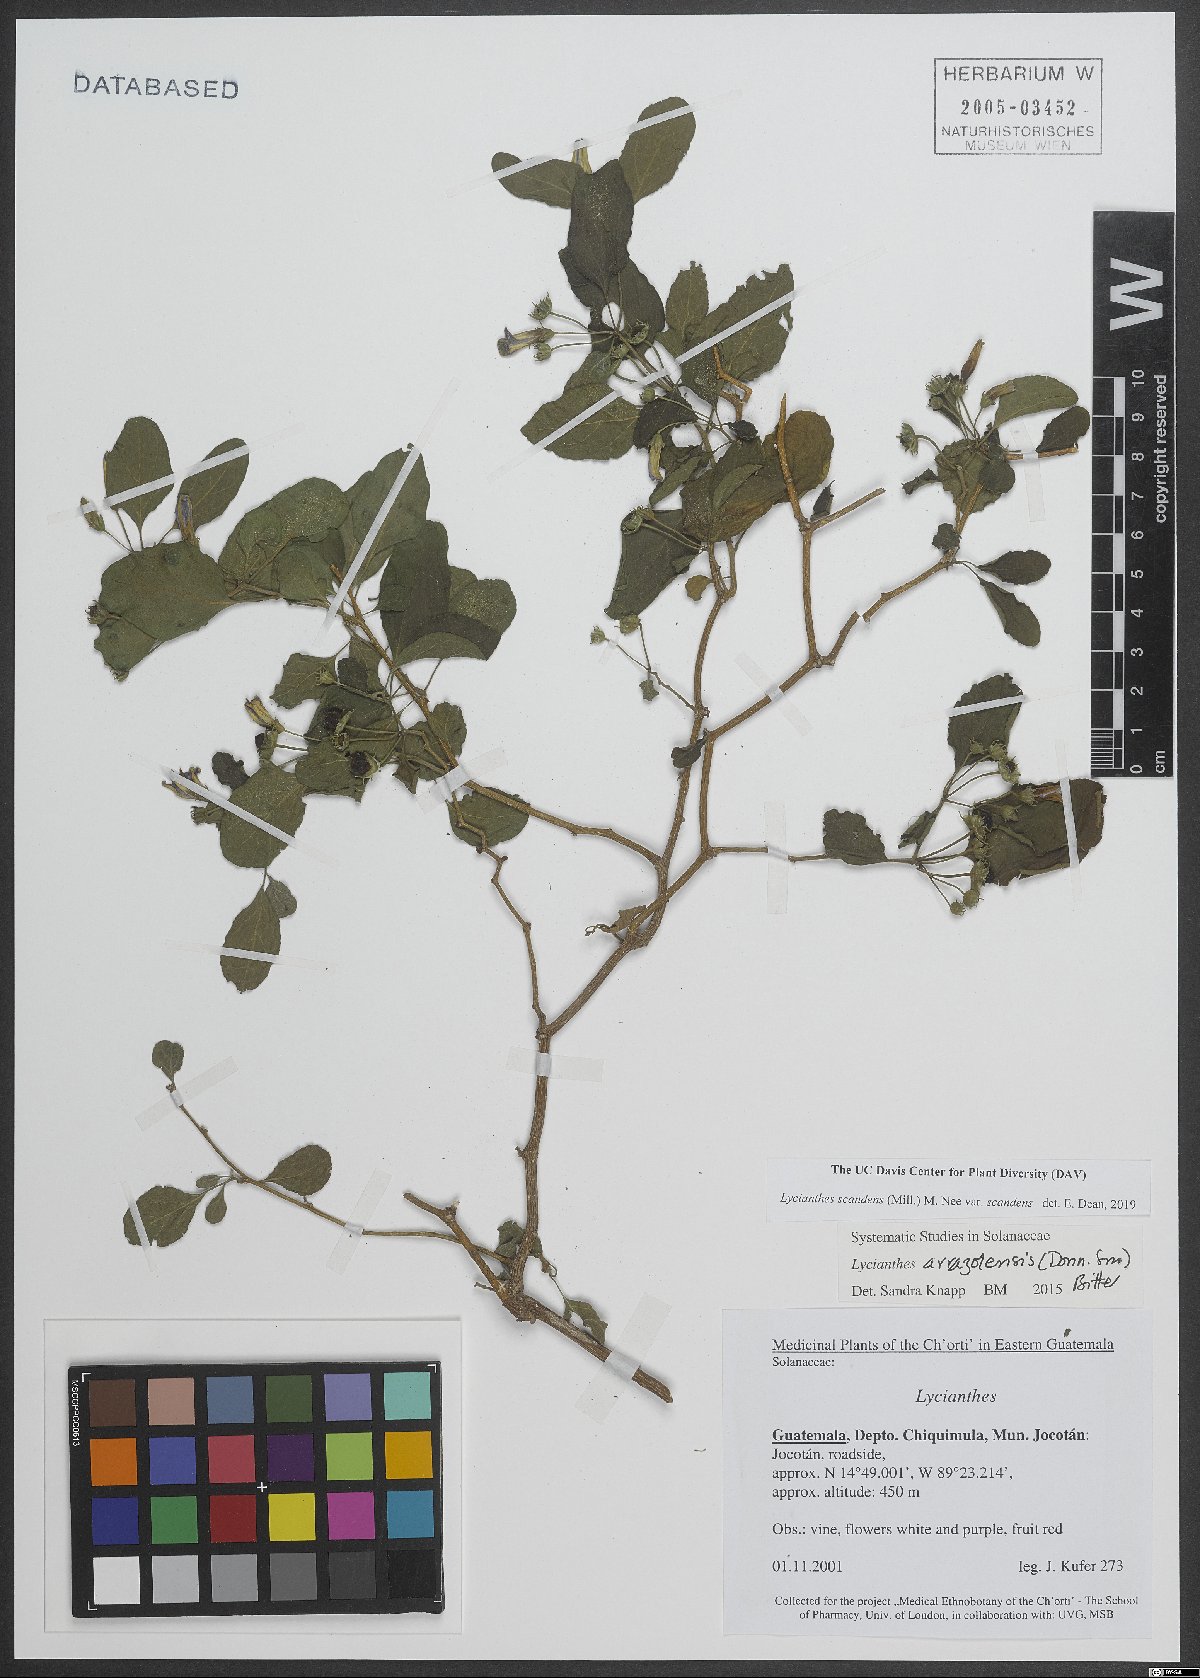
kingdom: Plantae
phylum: Tracheophyta
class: Magnoliopsida
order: Solanales
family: Solanaceae
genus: Lycianthes
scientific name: Lycianthes scandens
